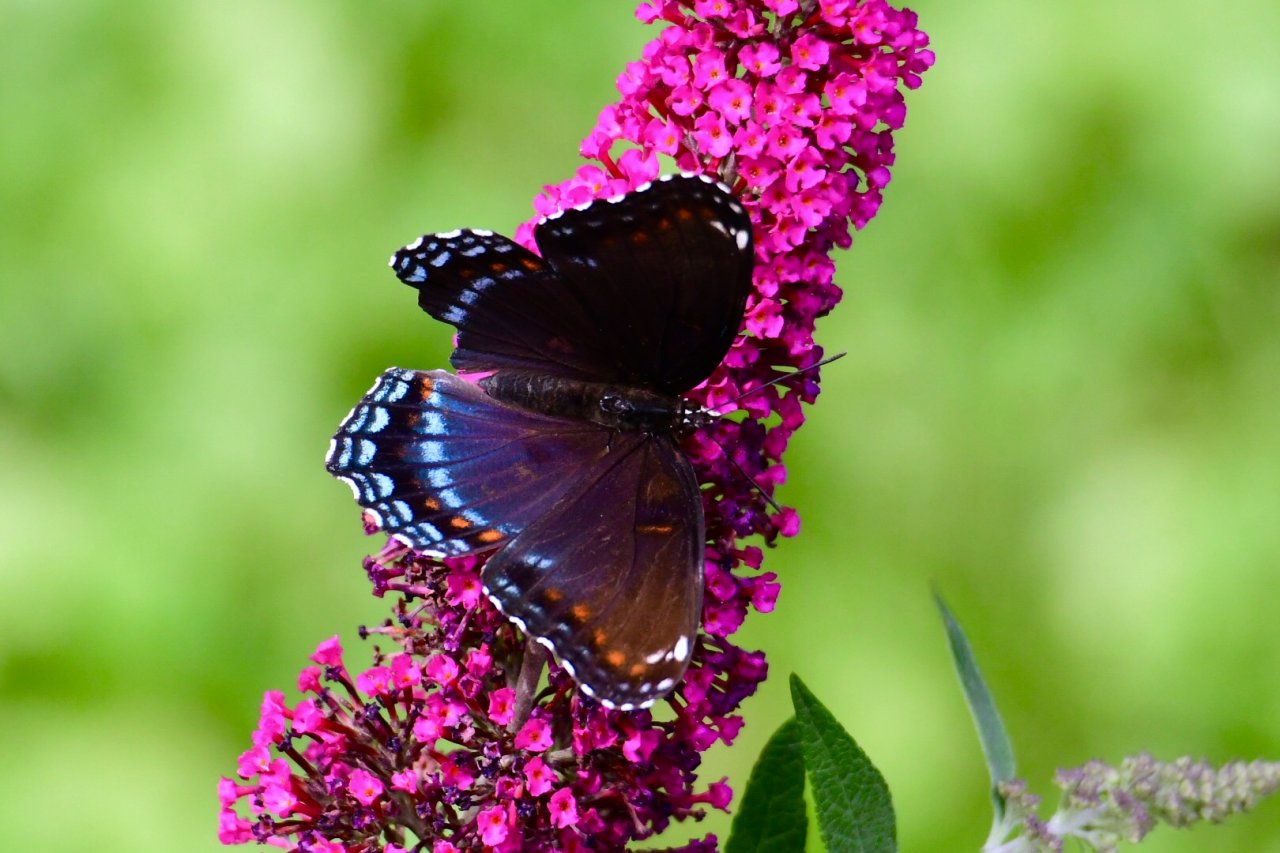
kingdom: Animalia
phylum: Arthropoda
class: Insecta
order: Lepidoptera
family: Nymphalidae
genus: Limenitis
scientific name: Limenitis astyanax
